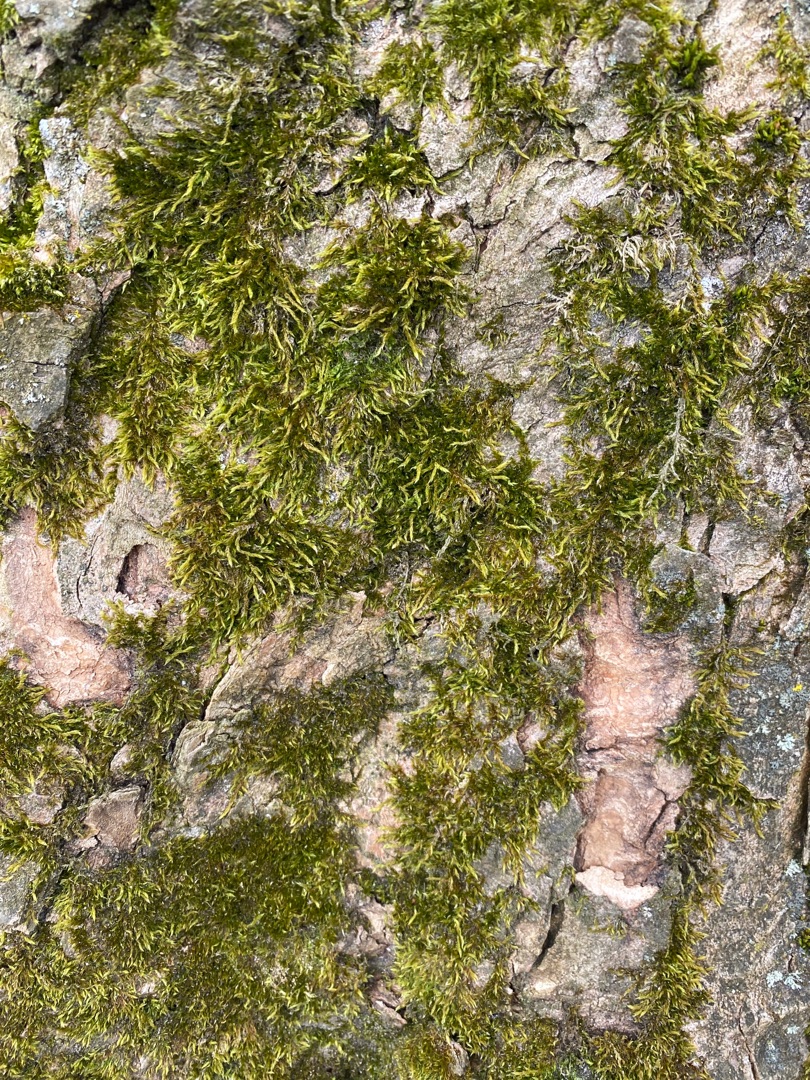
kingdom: Plantae
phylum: Bryophyta
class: Bryopsida
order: Hypnales
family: Hypnaceae
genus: Hypnum
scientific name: Hypnum cupressiforme
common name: Almindelig cypresmos
